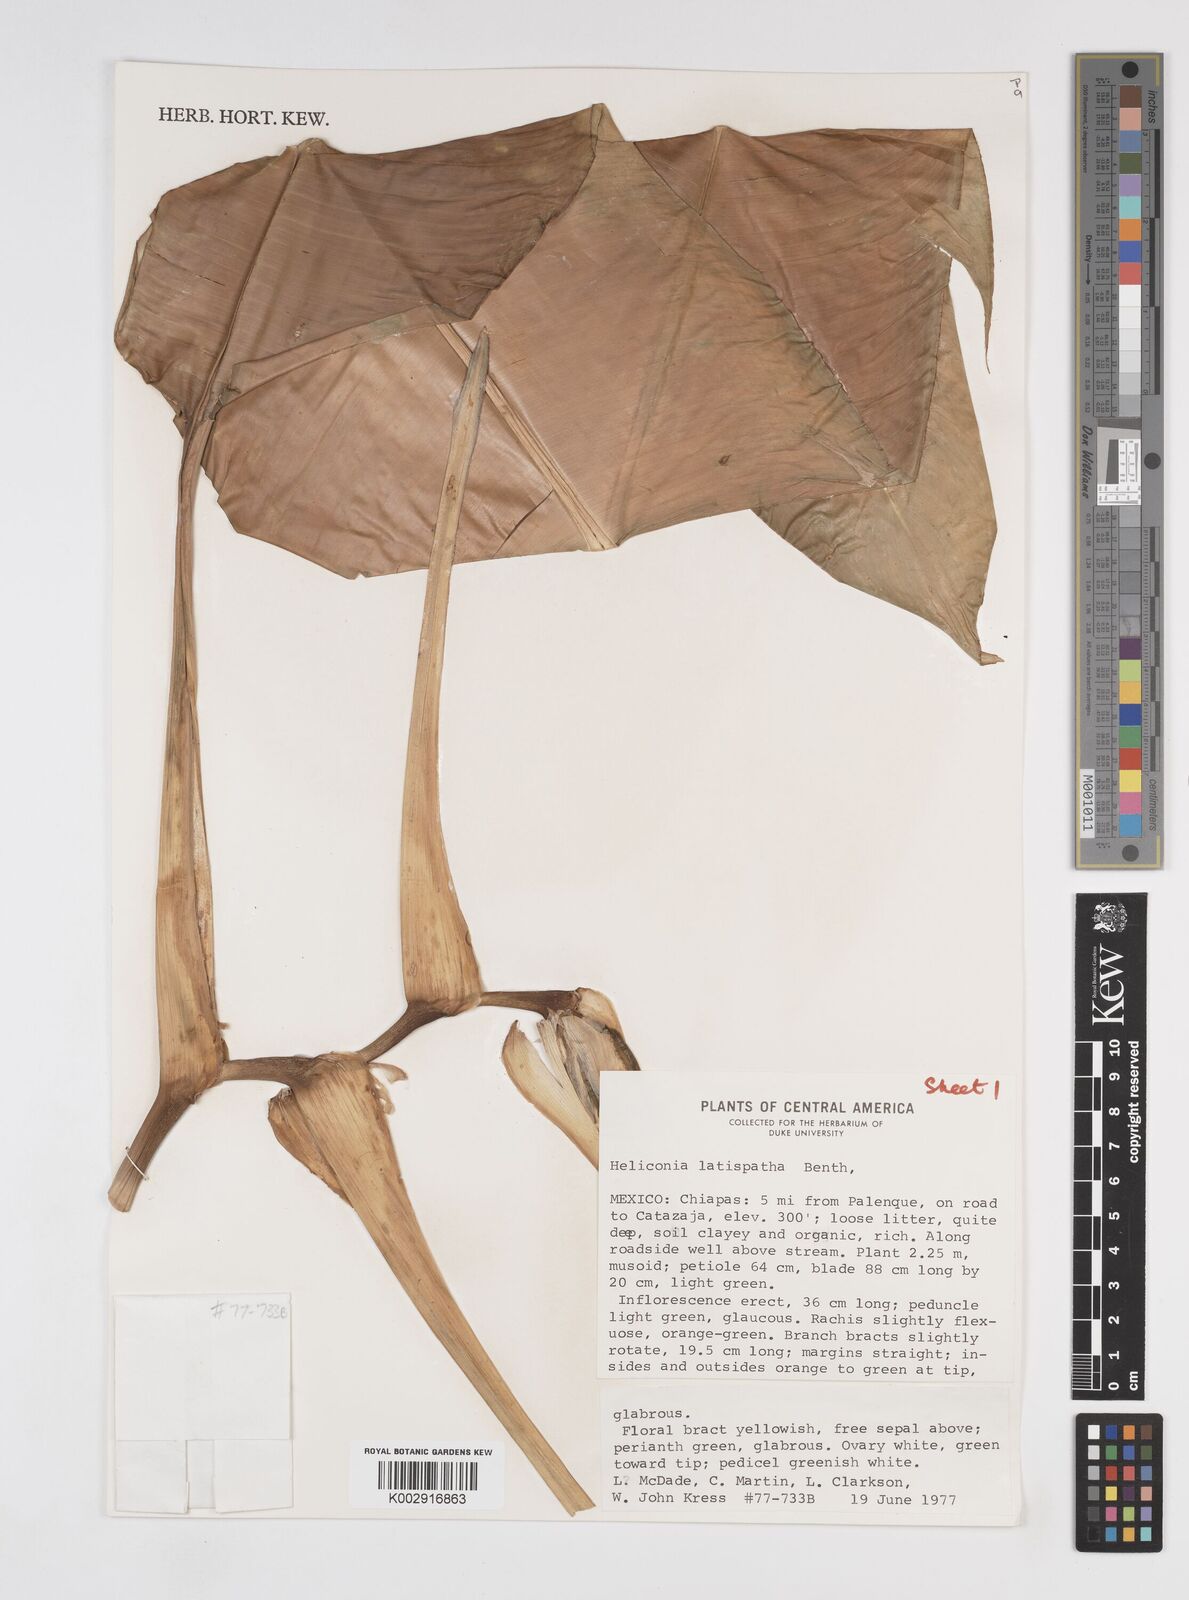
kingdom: Plantae
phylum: Tracheophyta
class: Liliopsida
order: Zingiberales
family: Heliconiaceae
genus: Heliconia
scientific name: Heliconia latispatha
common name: Expanded lobsterclaw
